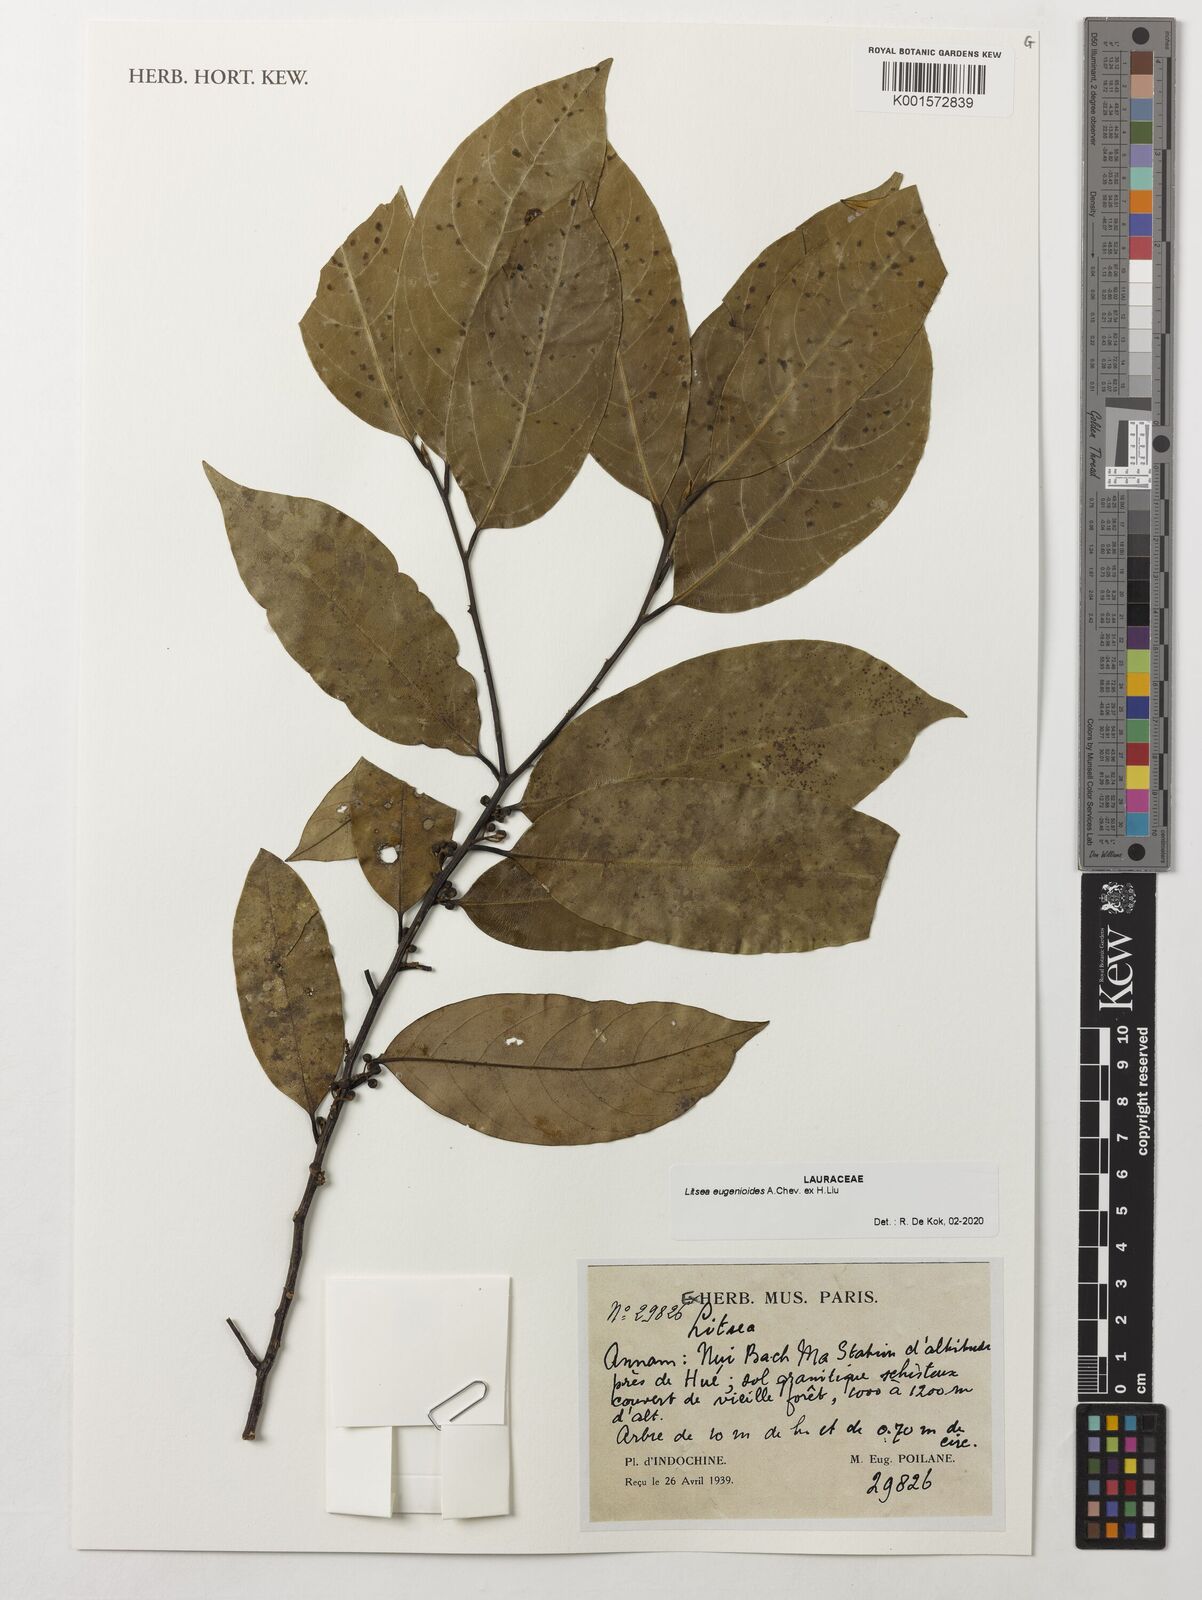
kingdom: Plantae
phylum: Tracheophyta
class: Magnoliopsida
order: Laurales
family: Lauraceae
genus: Litsea
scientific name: Litsea eugenioides
